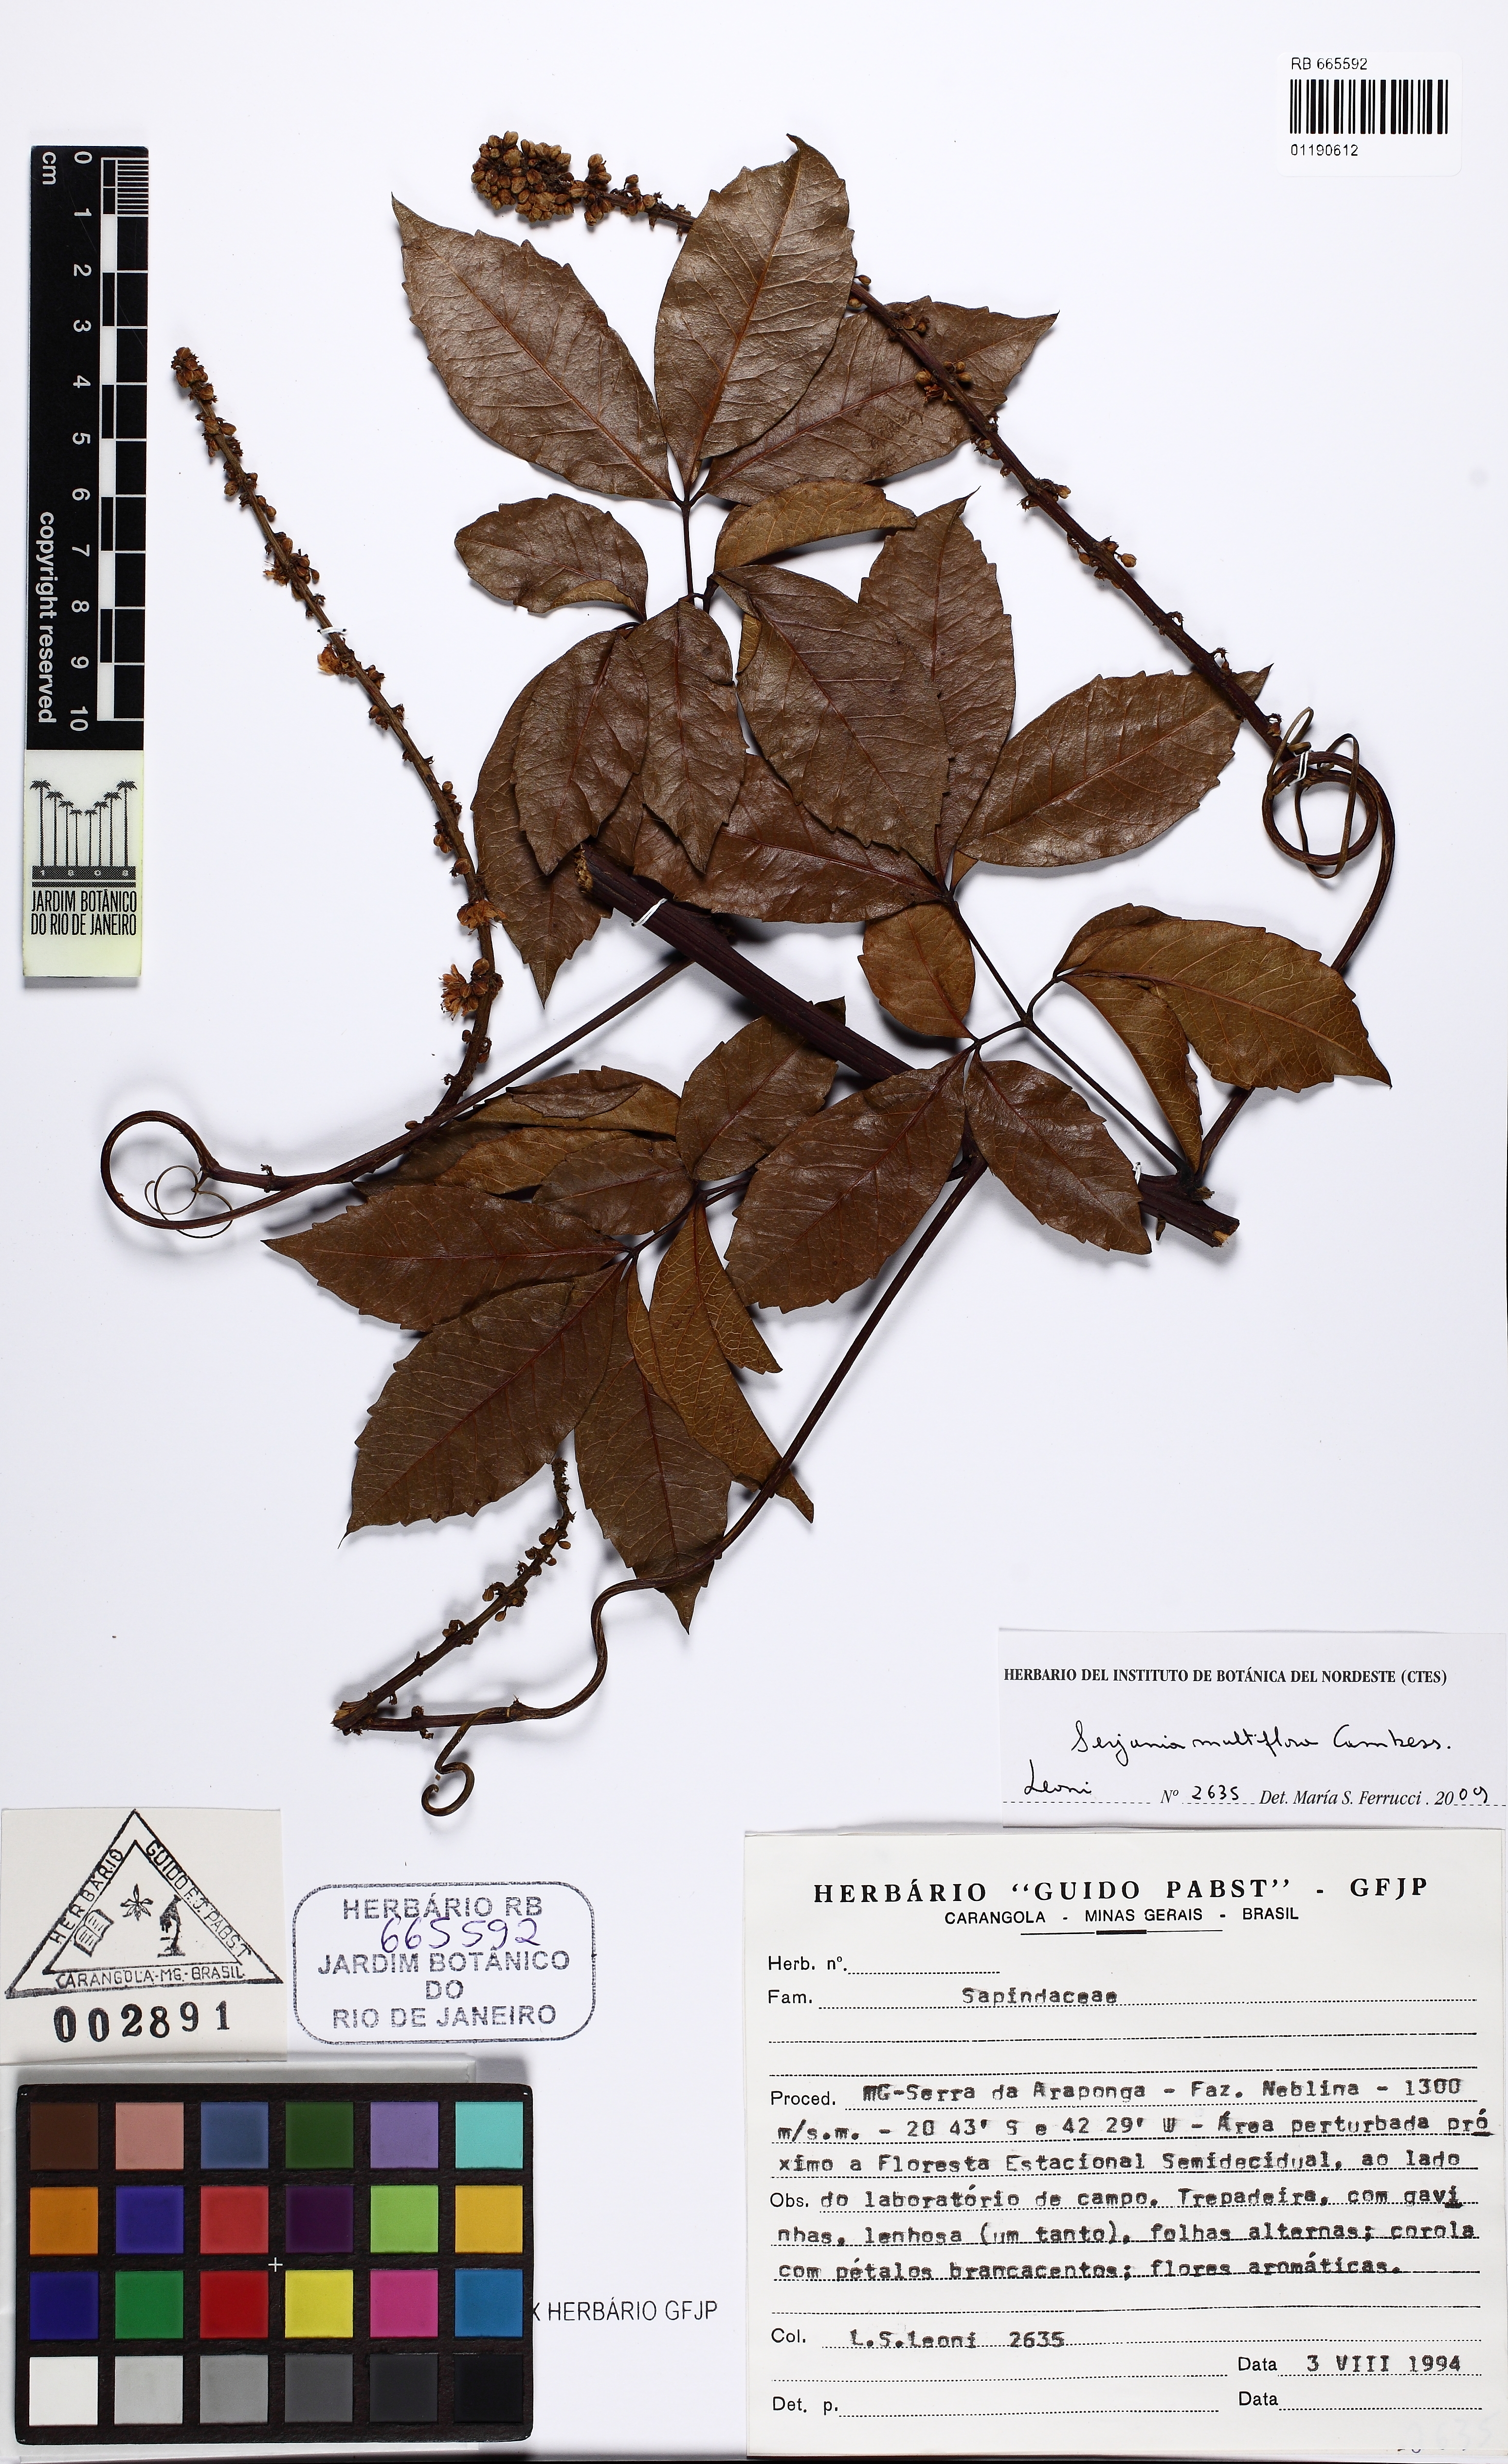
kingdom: Plantae
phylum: Tracheophyta
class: Magnoliopsida
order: Sapindales
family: Sapindaceae
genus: Serjania
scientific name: Serjania multiflora
